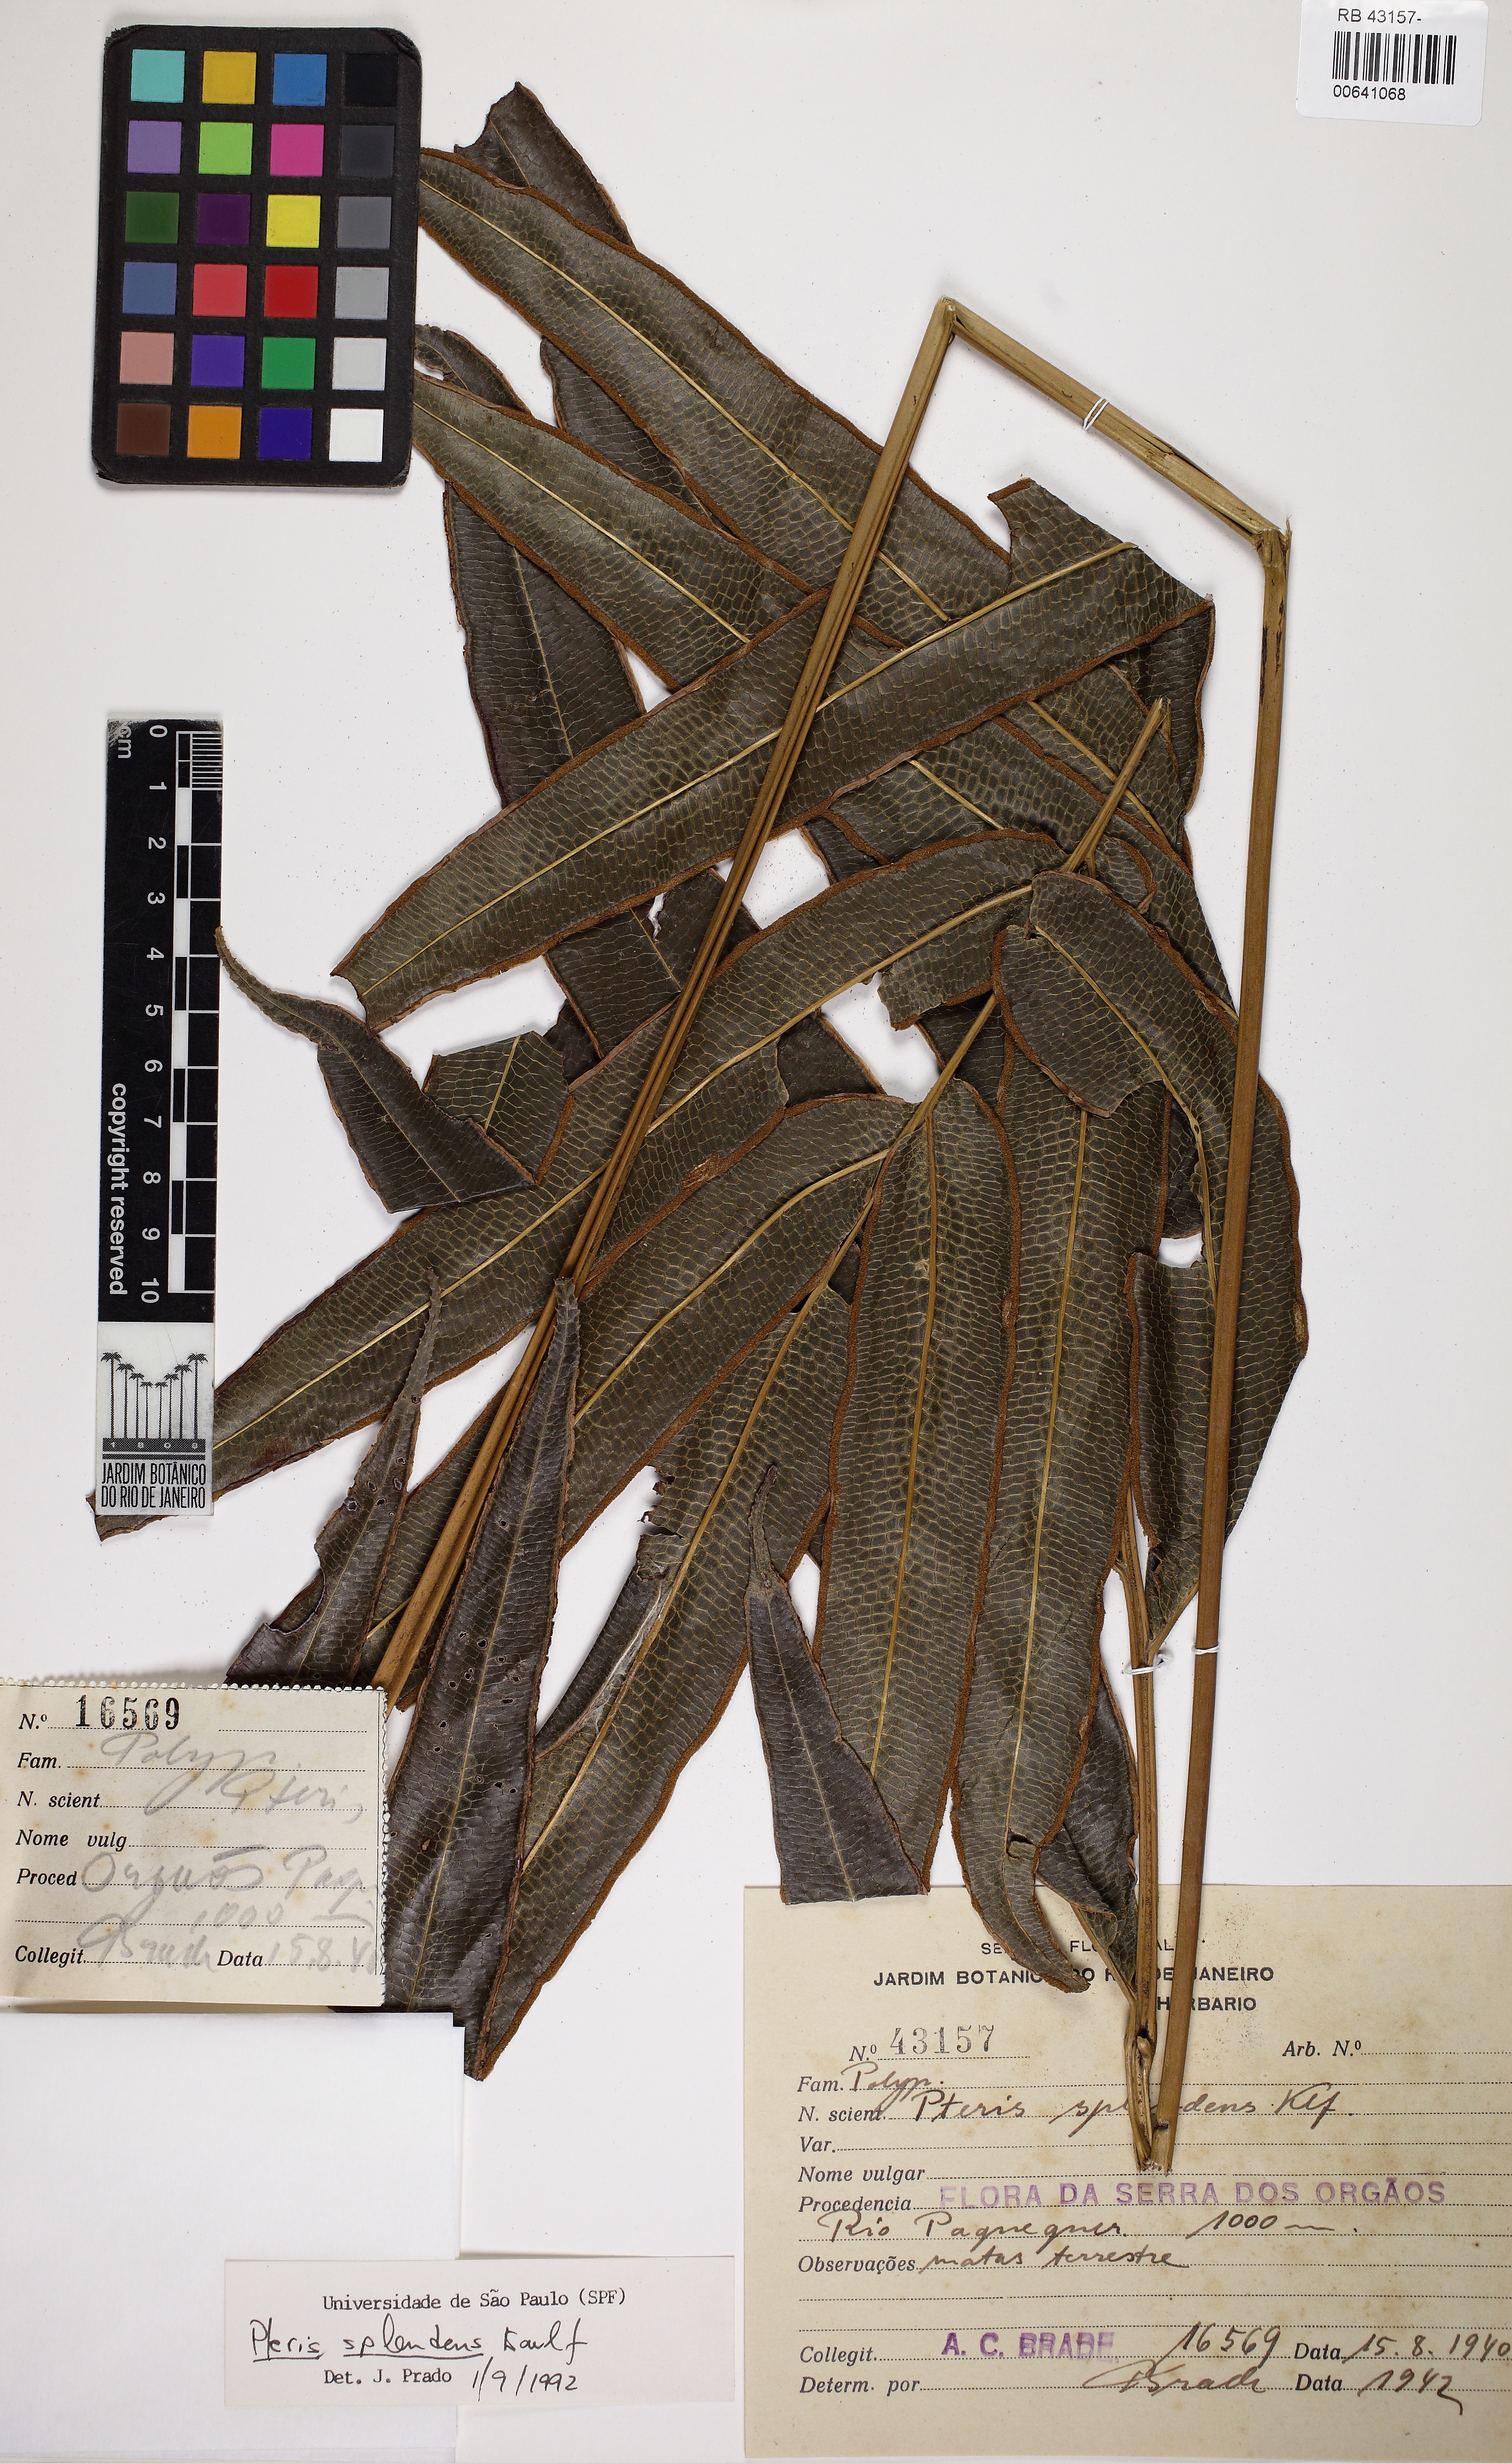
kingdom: Plantae
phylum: Tracheophyta
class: Polypodiopsida
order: Polypodiales
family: Pteridaceae
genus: Pteris
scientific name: Pteris splendens
